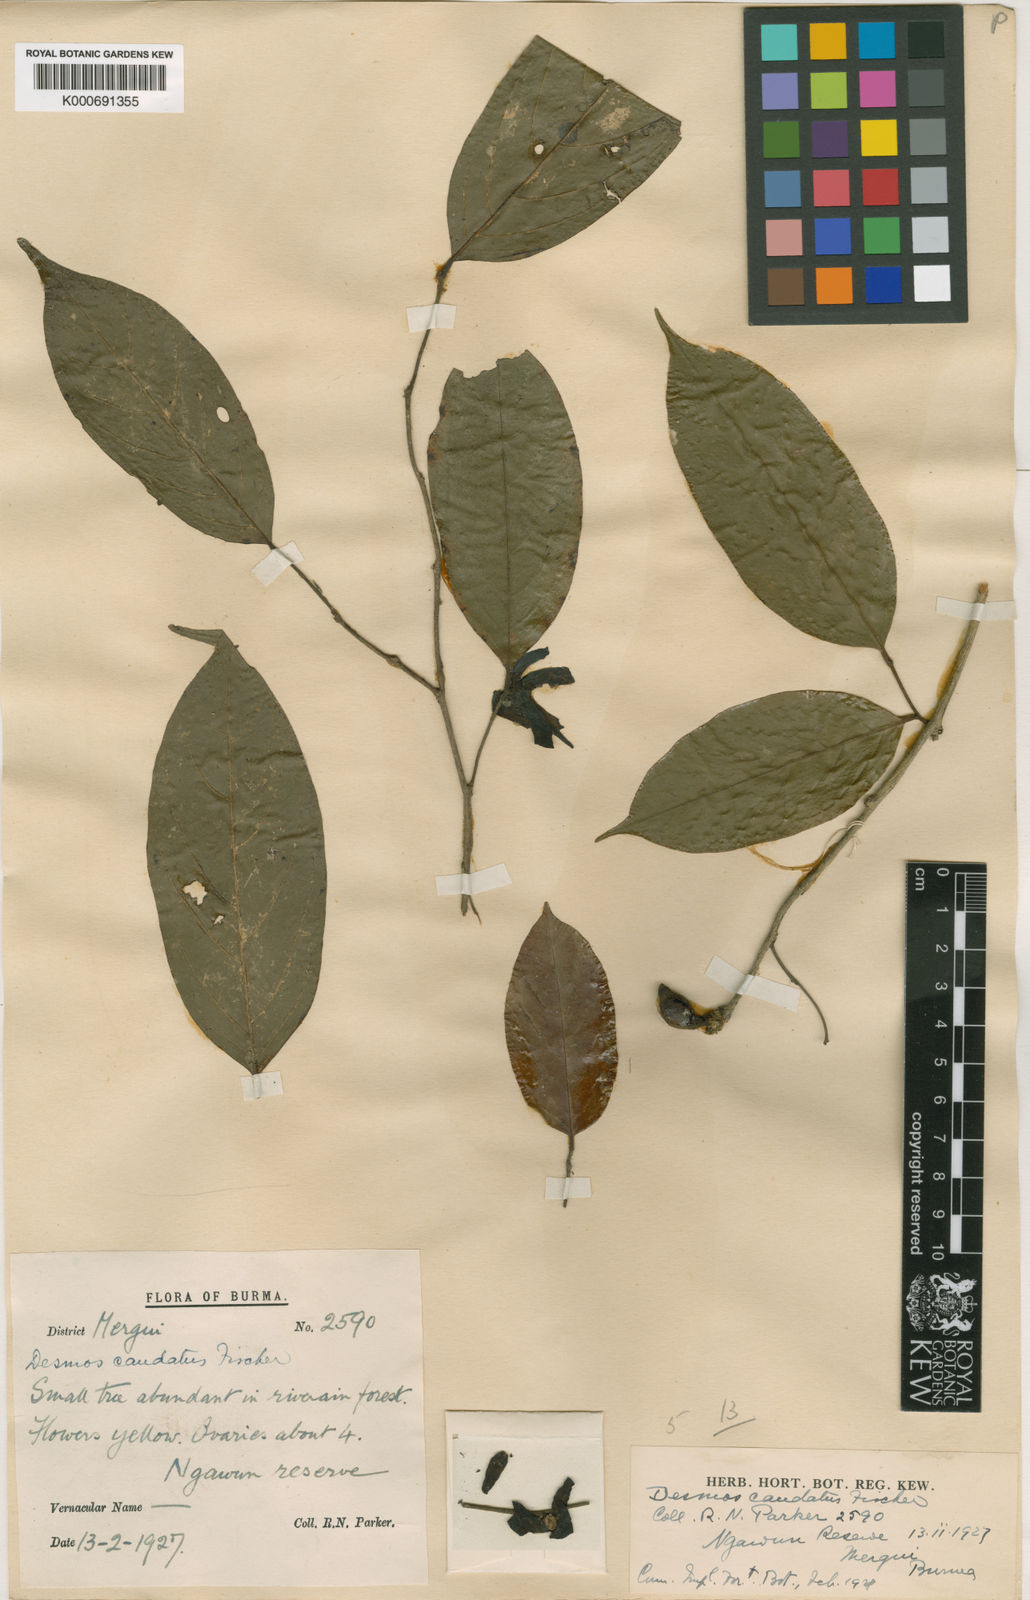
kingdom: Plantae
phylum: Tracheophyta
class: Magnoliopsida
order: Magnoliales
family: Annonaceae
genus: Desmos
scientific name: Desmos caudatus
